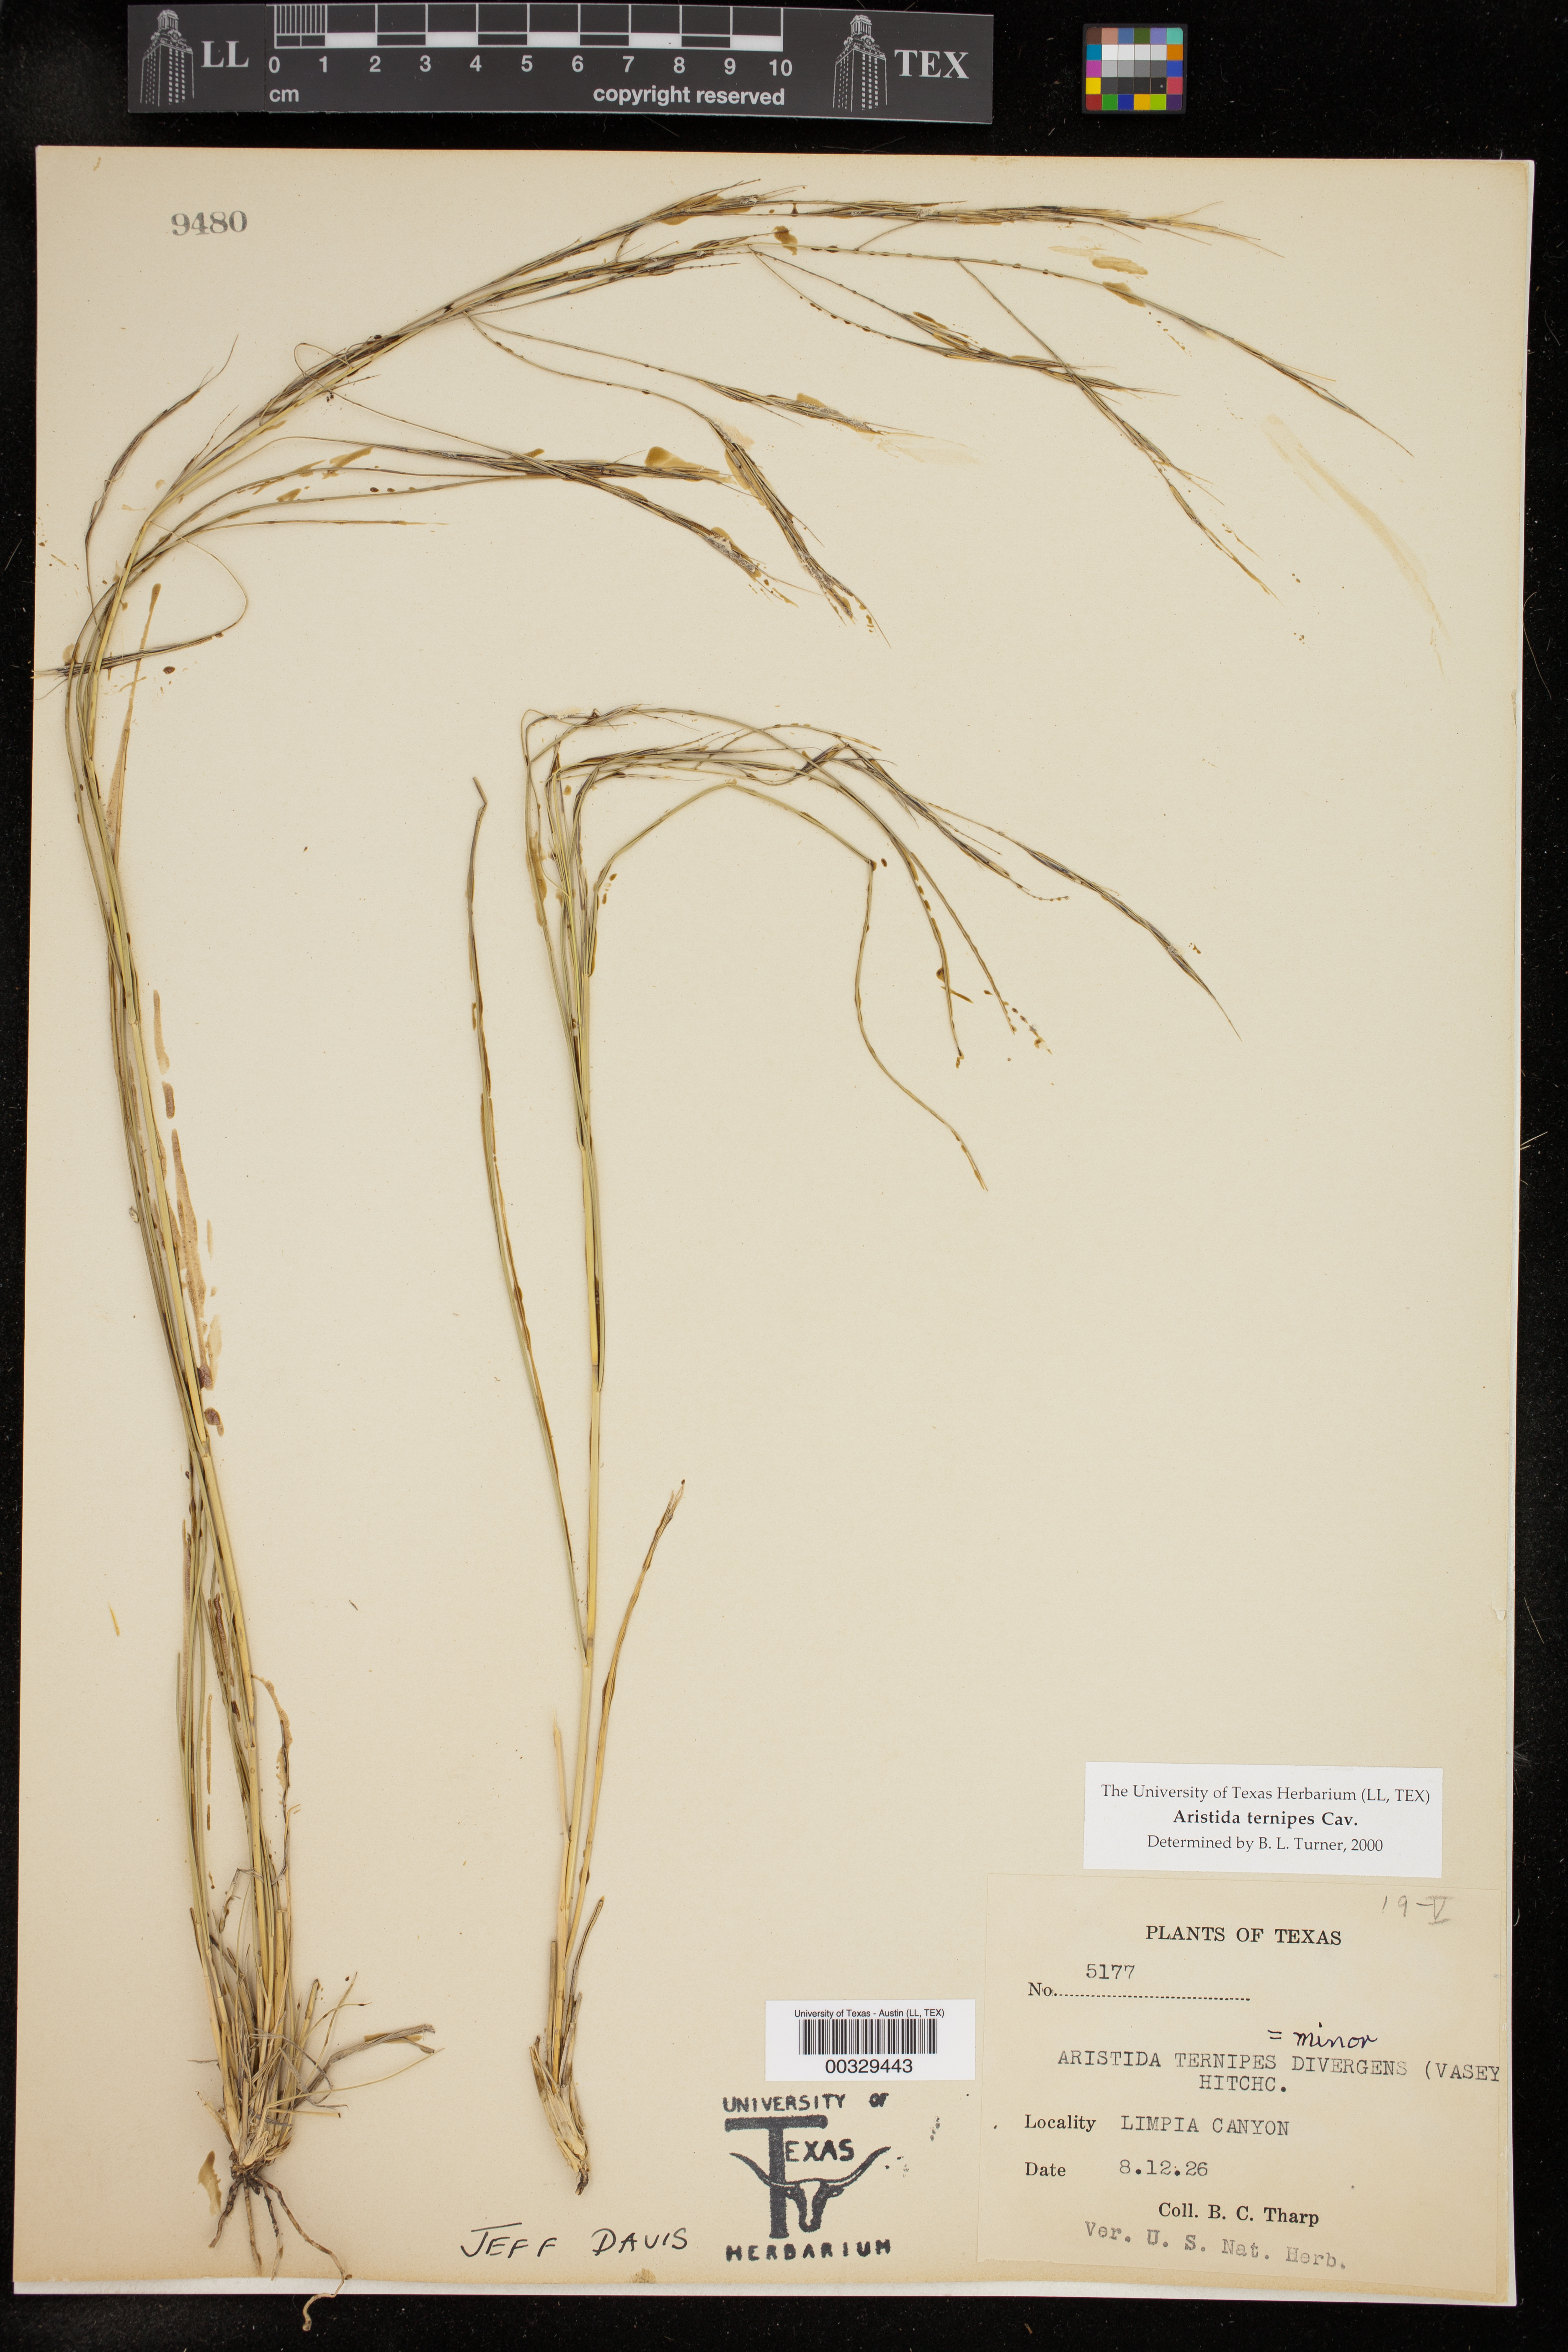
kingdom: Plantae
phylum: Tracheophyta
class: Liliopsida
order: Poales
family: Poaceae
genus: Aristida
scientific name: Aristida ternipes
